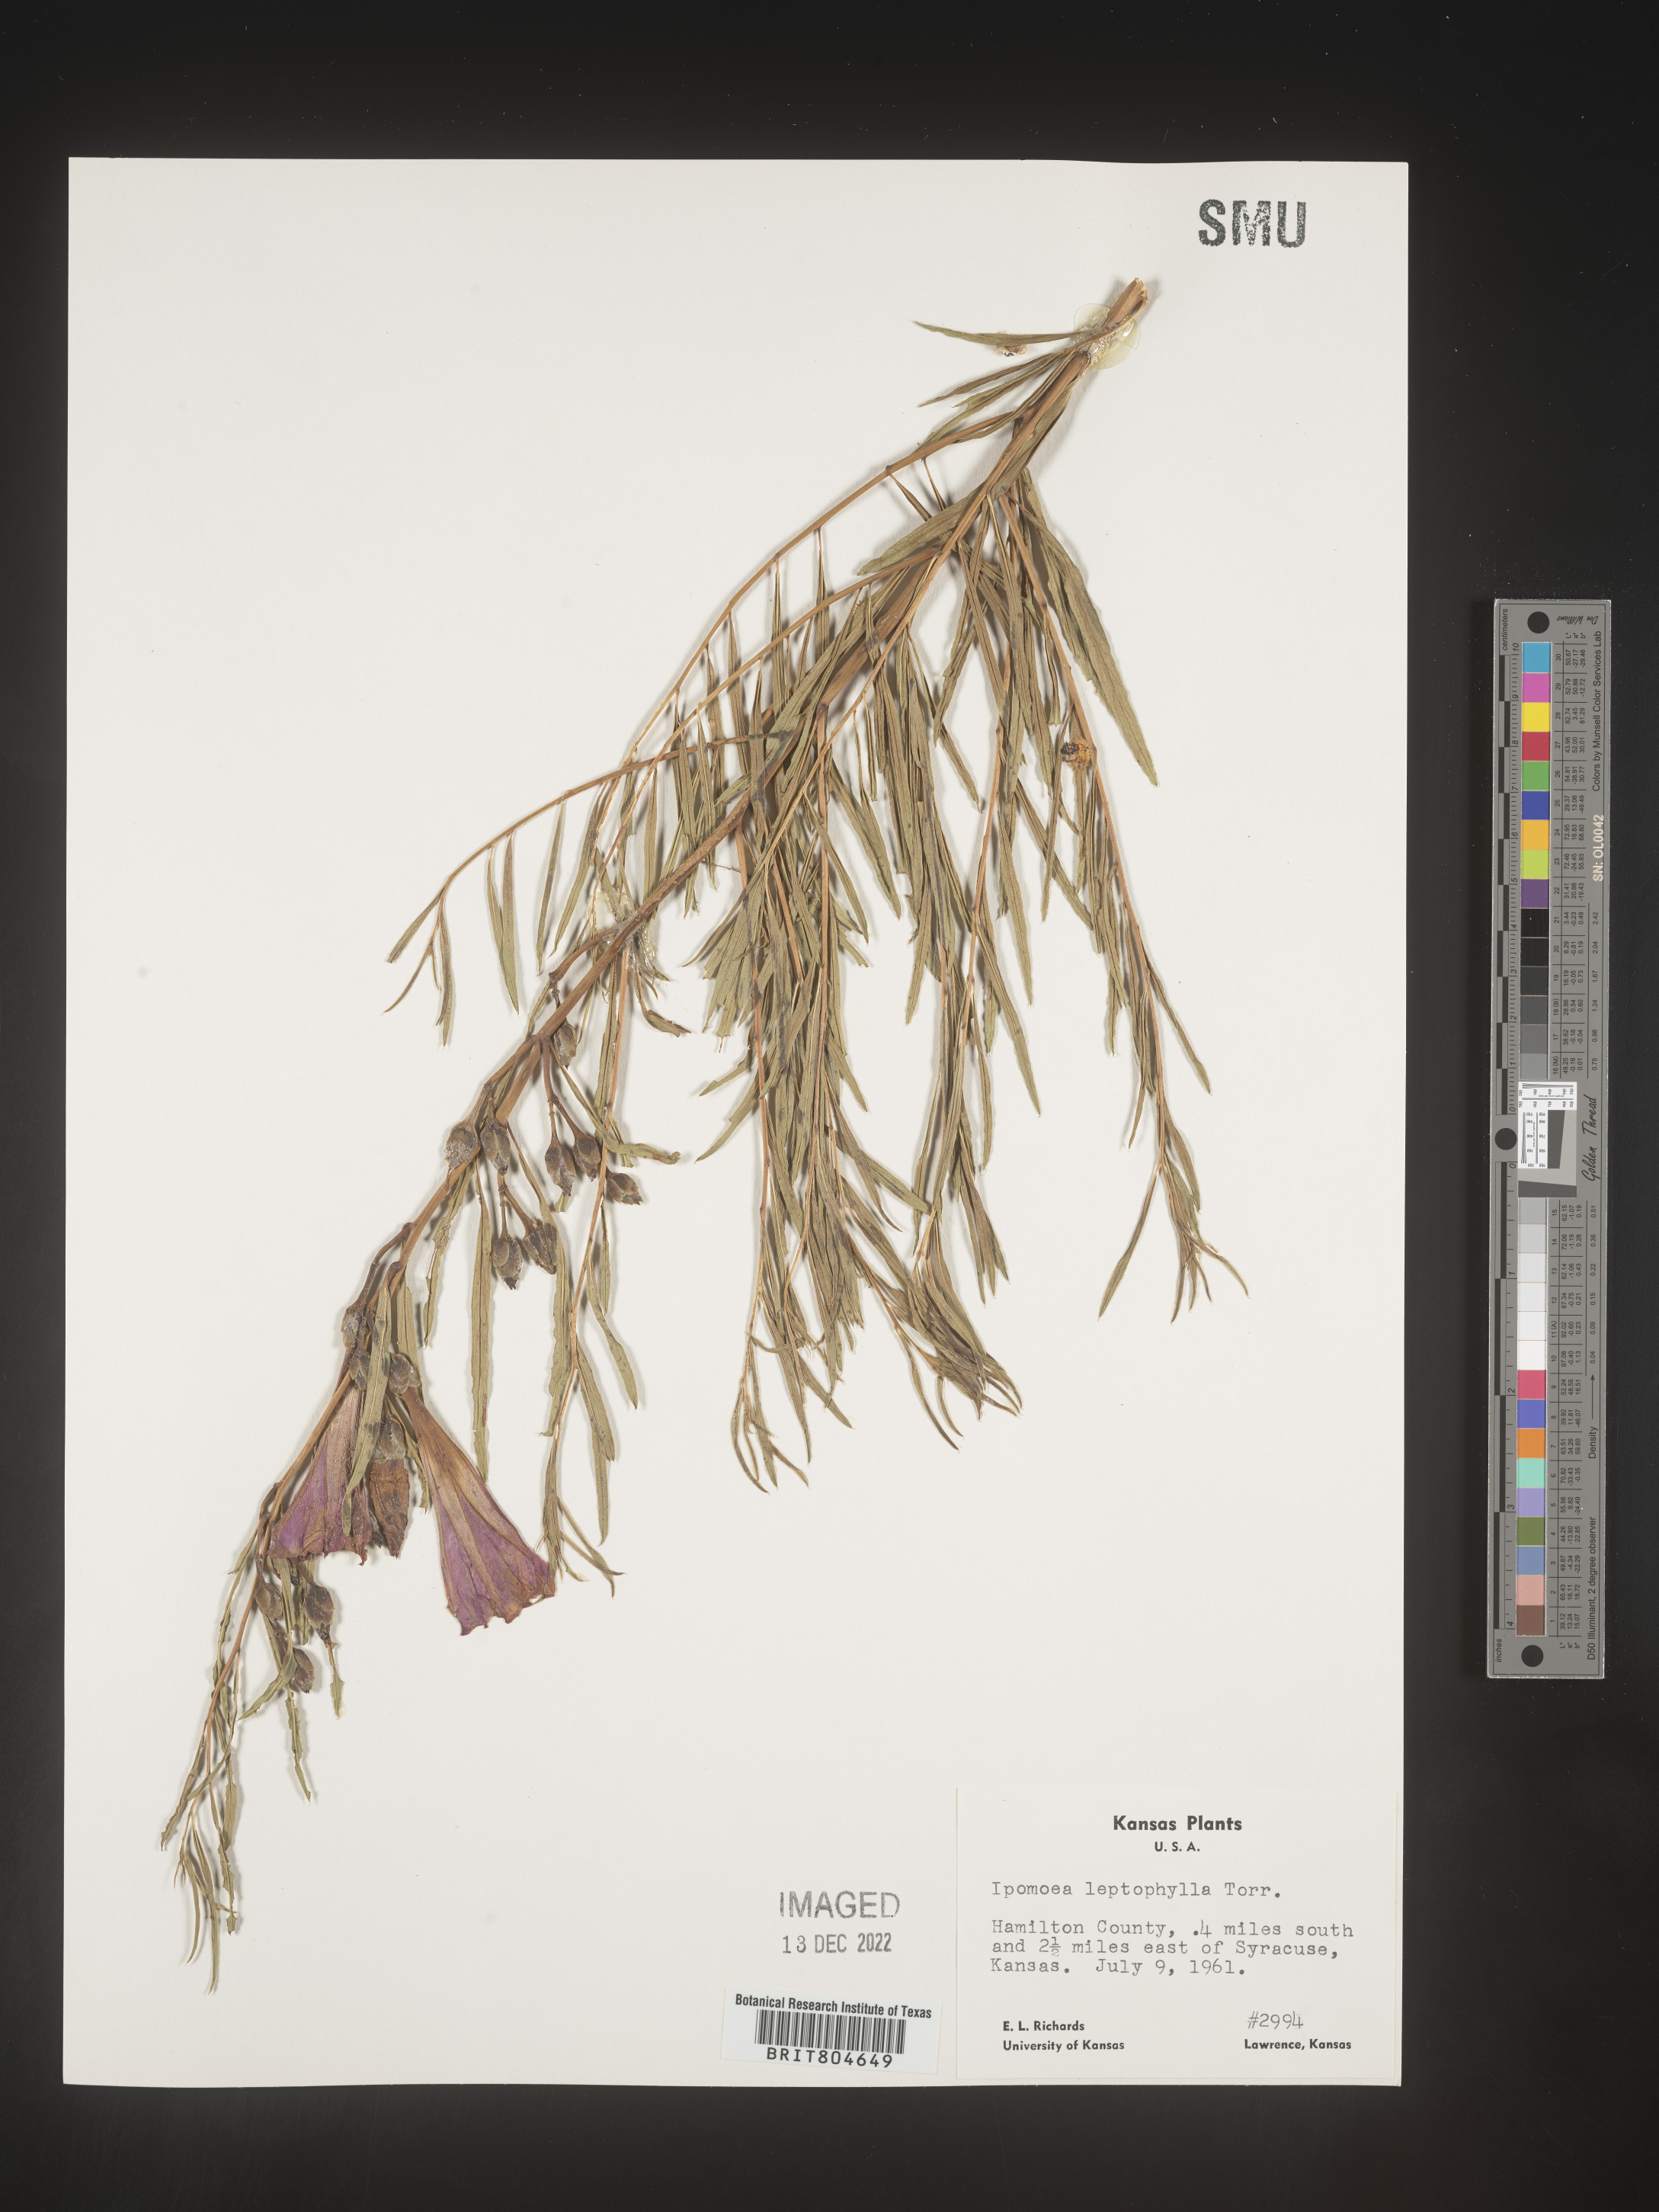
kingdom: Plantae
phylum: Tracheophyta
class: Magnoliopsida
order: Solanales
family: Convolvulaceae
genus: Ipomoea
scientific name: Ipomoea leptophylla
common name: Bush moonflower
